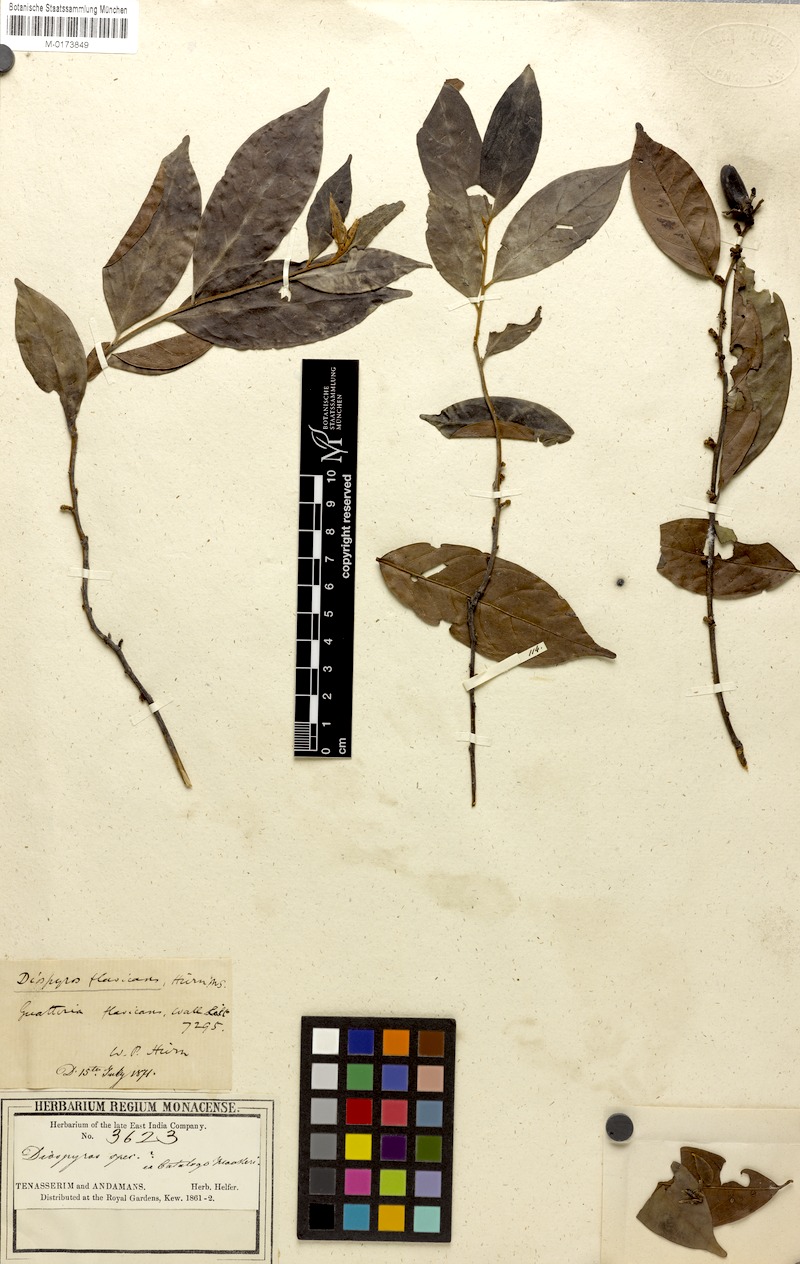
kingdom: Plantae
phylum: Tracheophyta
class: Magnoliopsida
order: Ericales
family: Ebenaceae
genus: Diospyros
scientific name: Diospyros sumatrana
